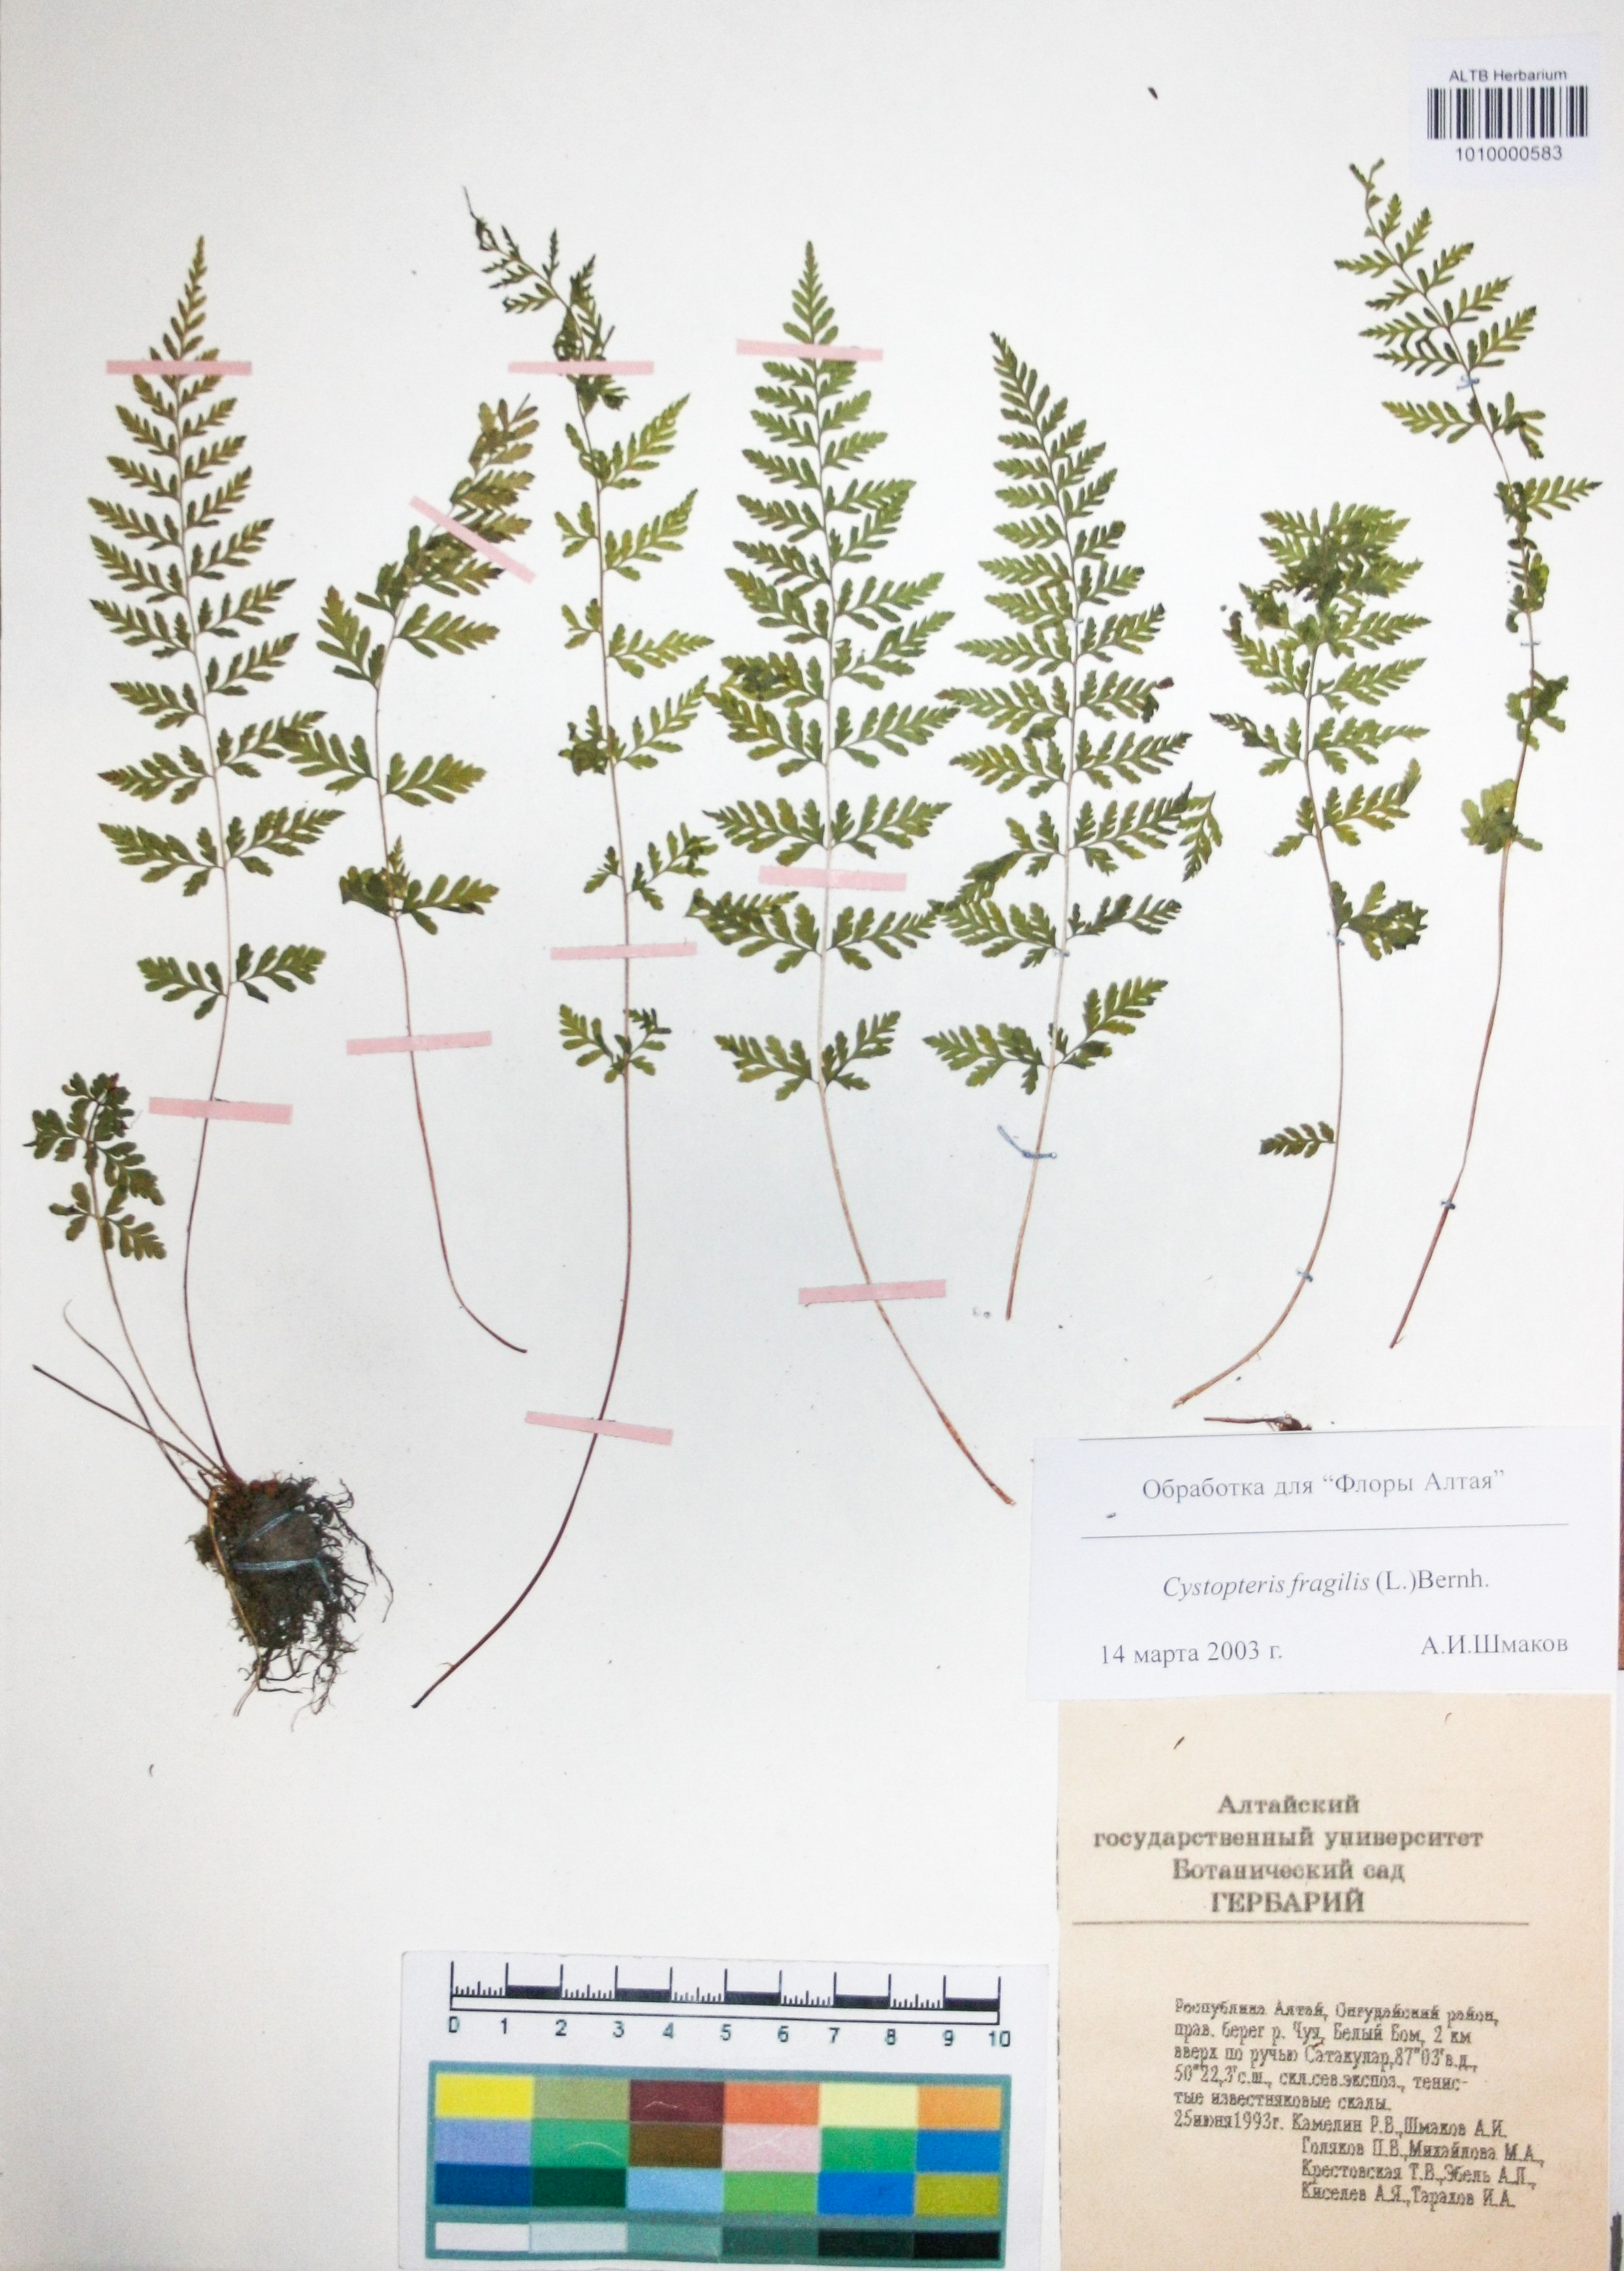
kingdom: Plantae
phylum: Tracheophyta
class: Polypodiopsida
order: Polypodiales
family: Cystopteridaceae
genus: Cystopteris
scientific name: Cystopteris fragilis
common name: Brittle bladder fern
